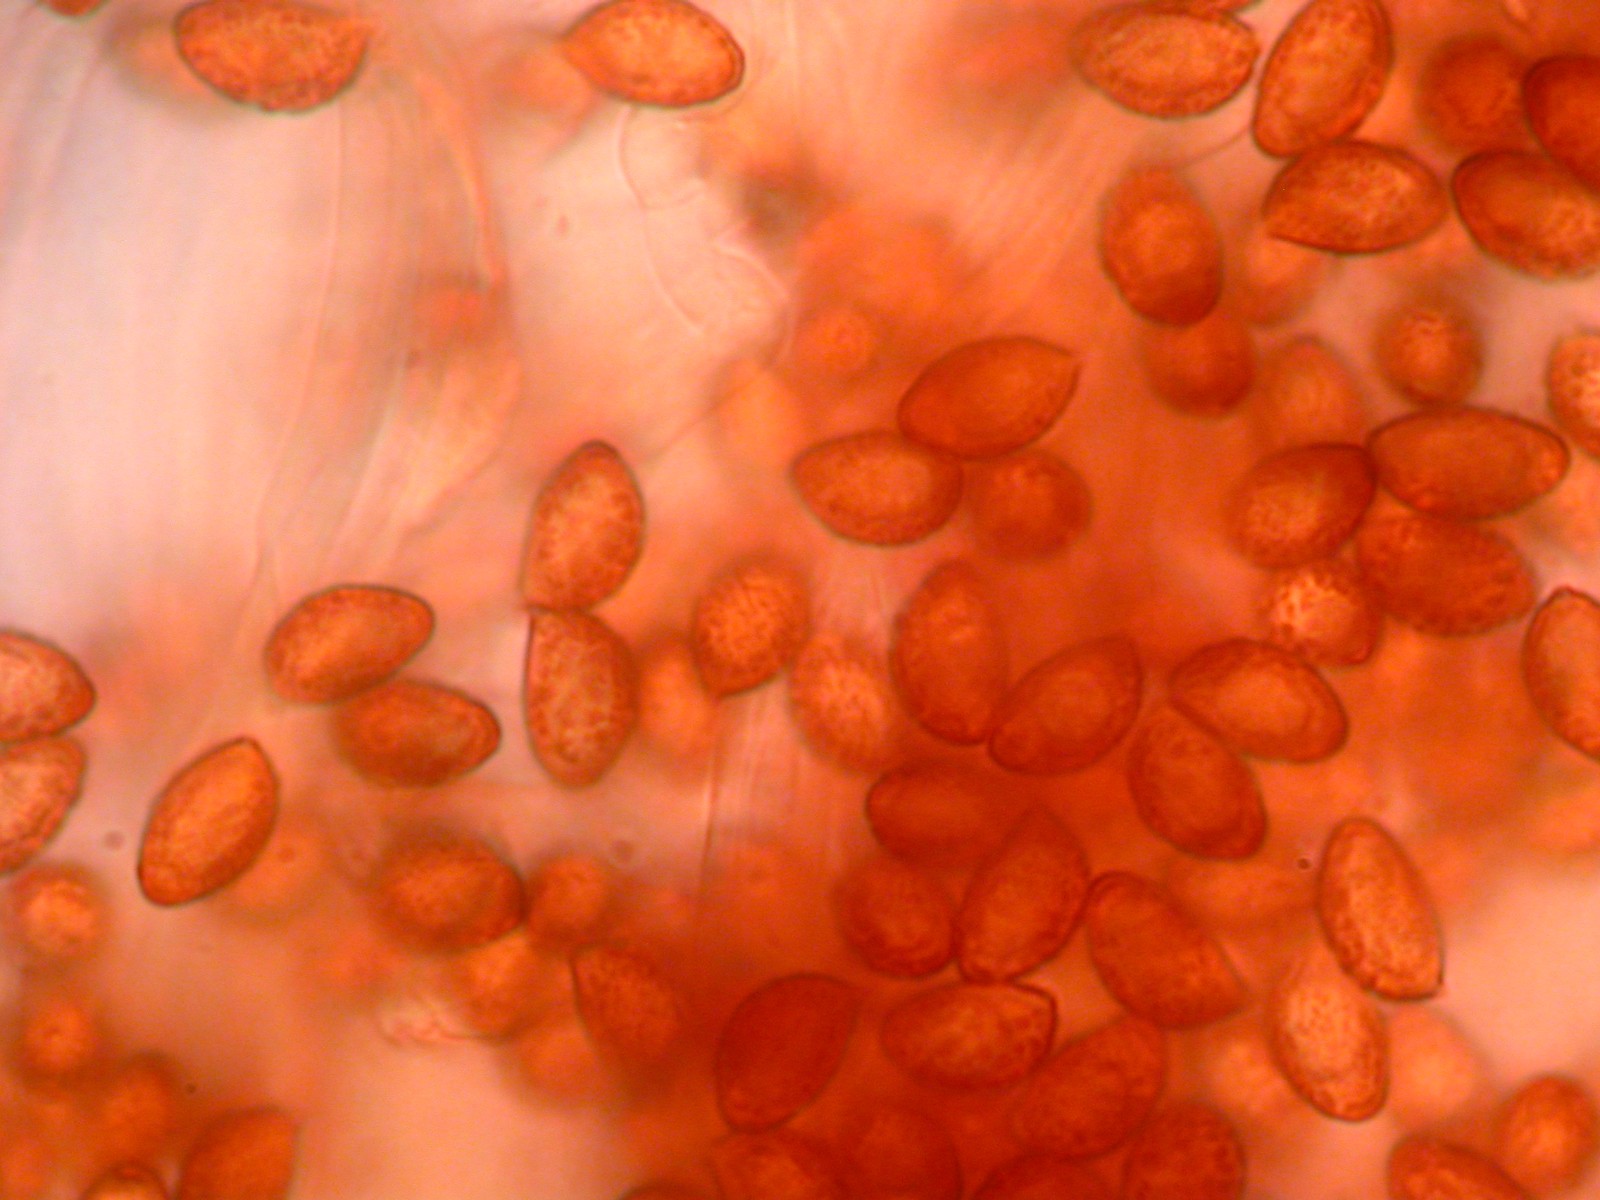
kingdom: Fungi
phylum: Basidiomycota
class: Agaricomycetes
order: Agaricales
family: Cortinariaceae
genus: Cortinarius
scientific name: Cortinarius
